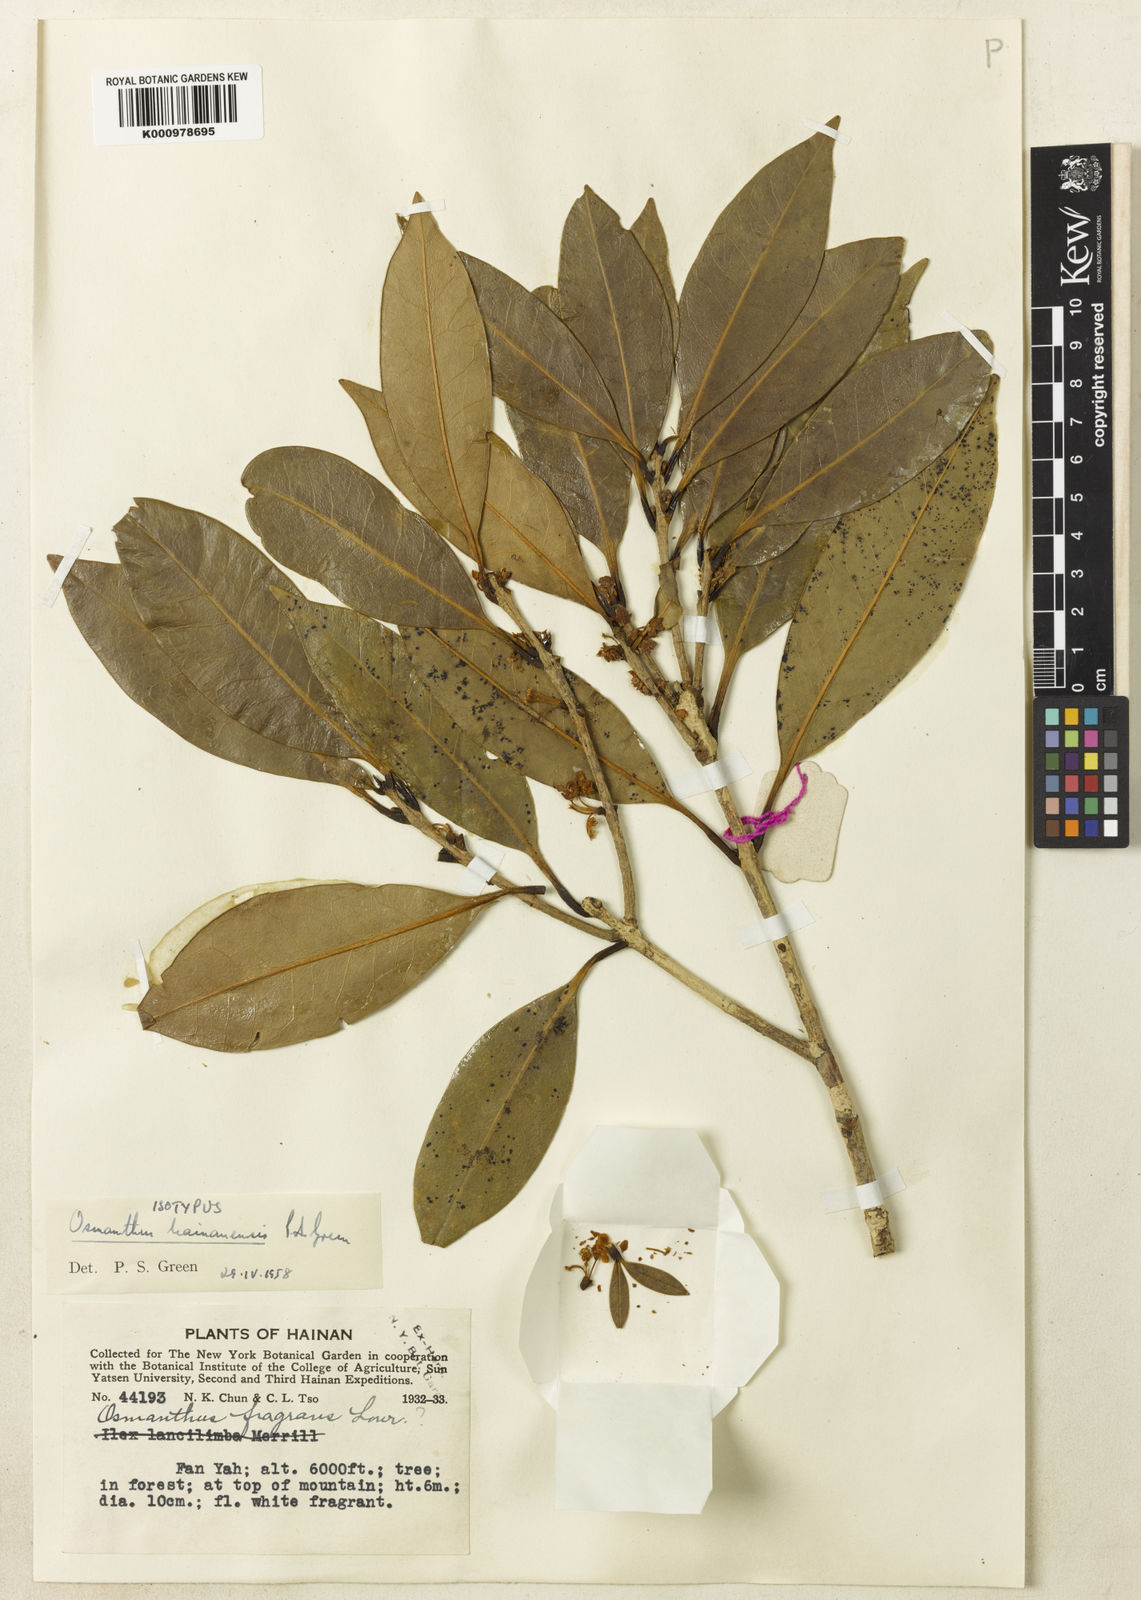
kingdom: Plantae
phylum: Tracheophyta
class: Magnoliopsida
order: Lamiales
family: Oleaceae
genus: Osmanthus
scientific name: Osmanthus hainanensis
